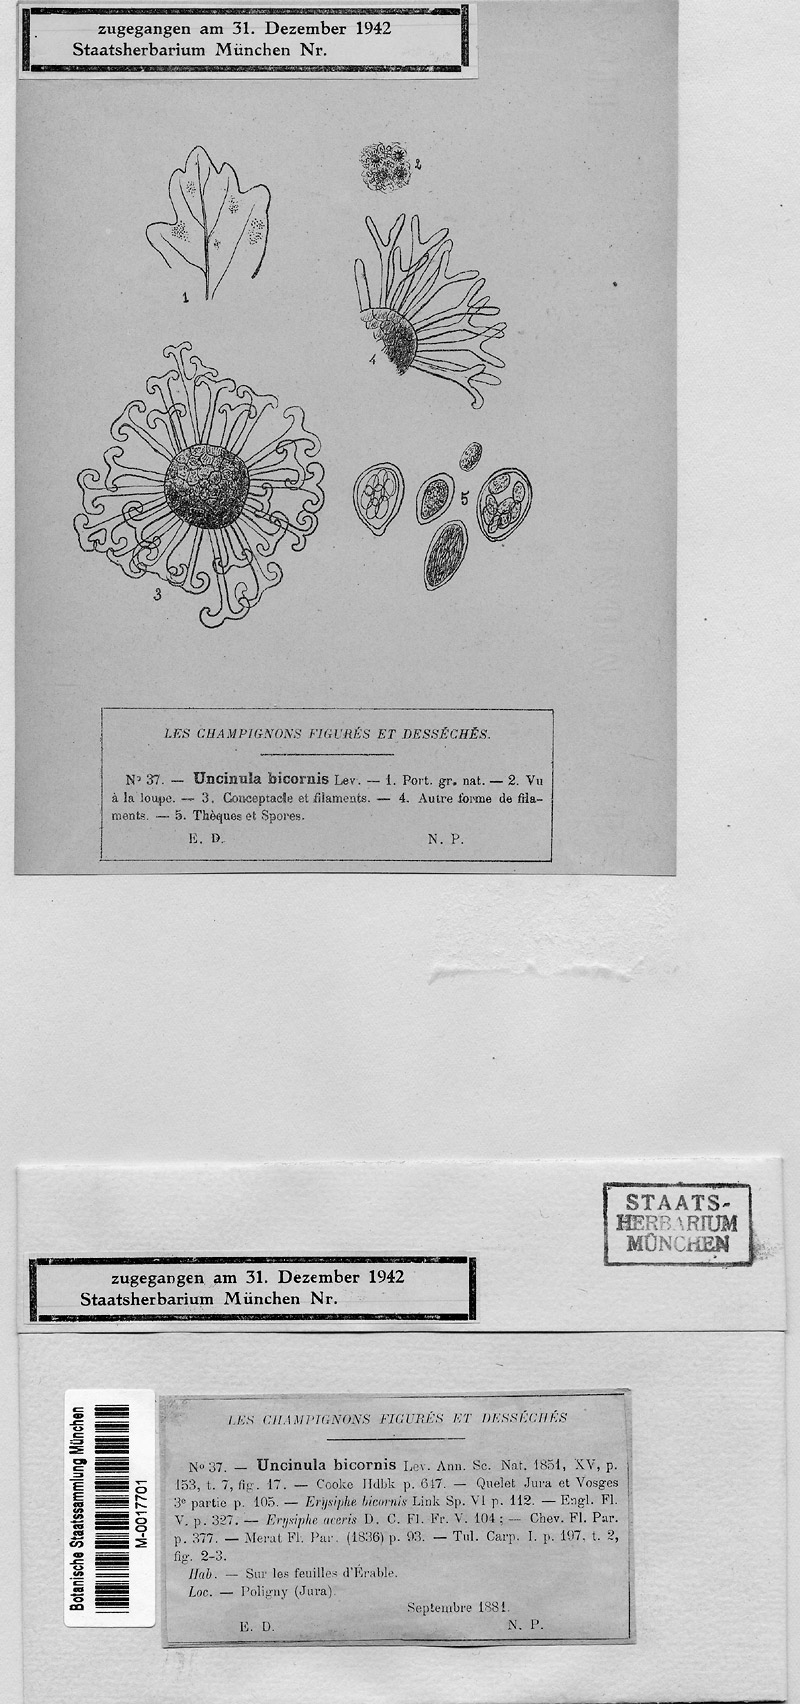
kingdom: Plantae
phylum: Tracheophyta
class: Magnoliopsida
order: Sapindales
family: Sapindaceae
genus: Acer
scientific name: Acer
